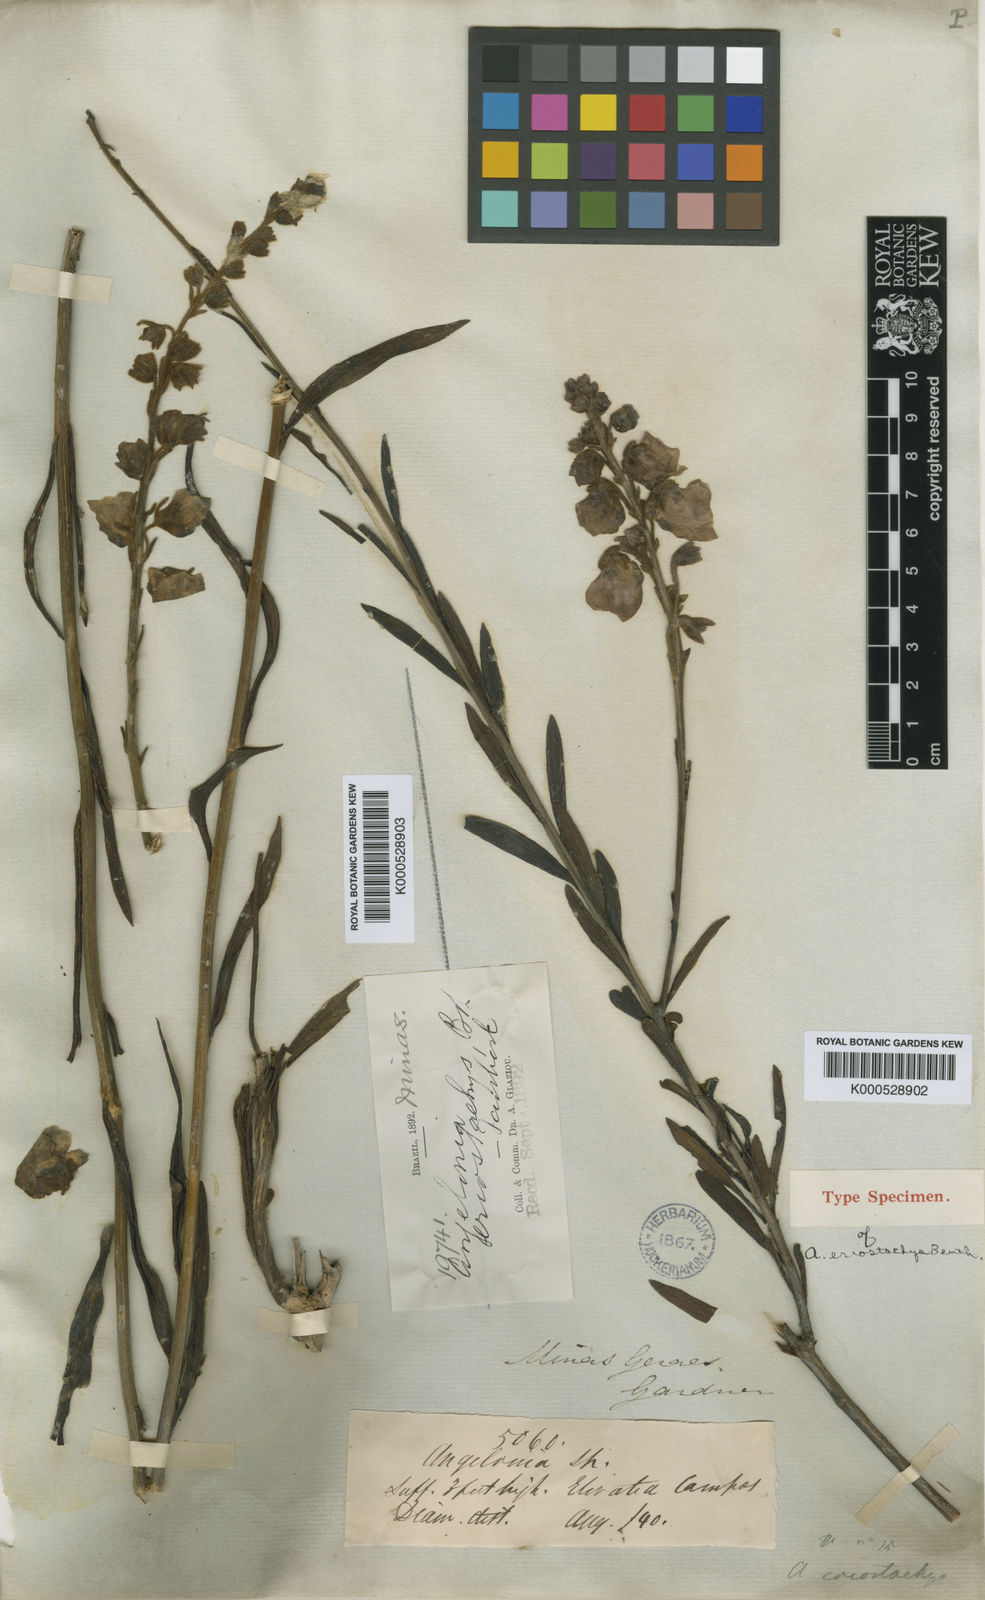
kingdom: Plantae
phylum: Tracheophyta
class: Magnoliopsida
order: Lamiales
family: Plantaginaceae
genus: Angelonia
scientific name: Angelonia eriostachys
